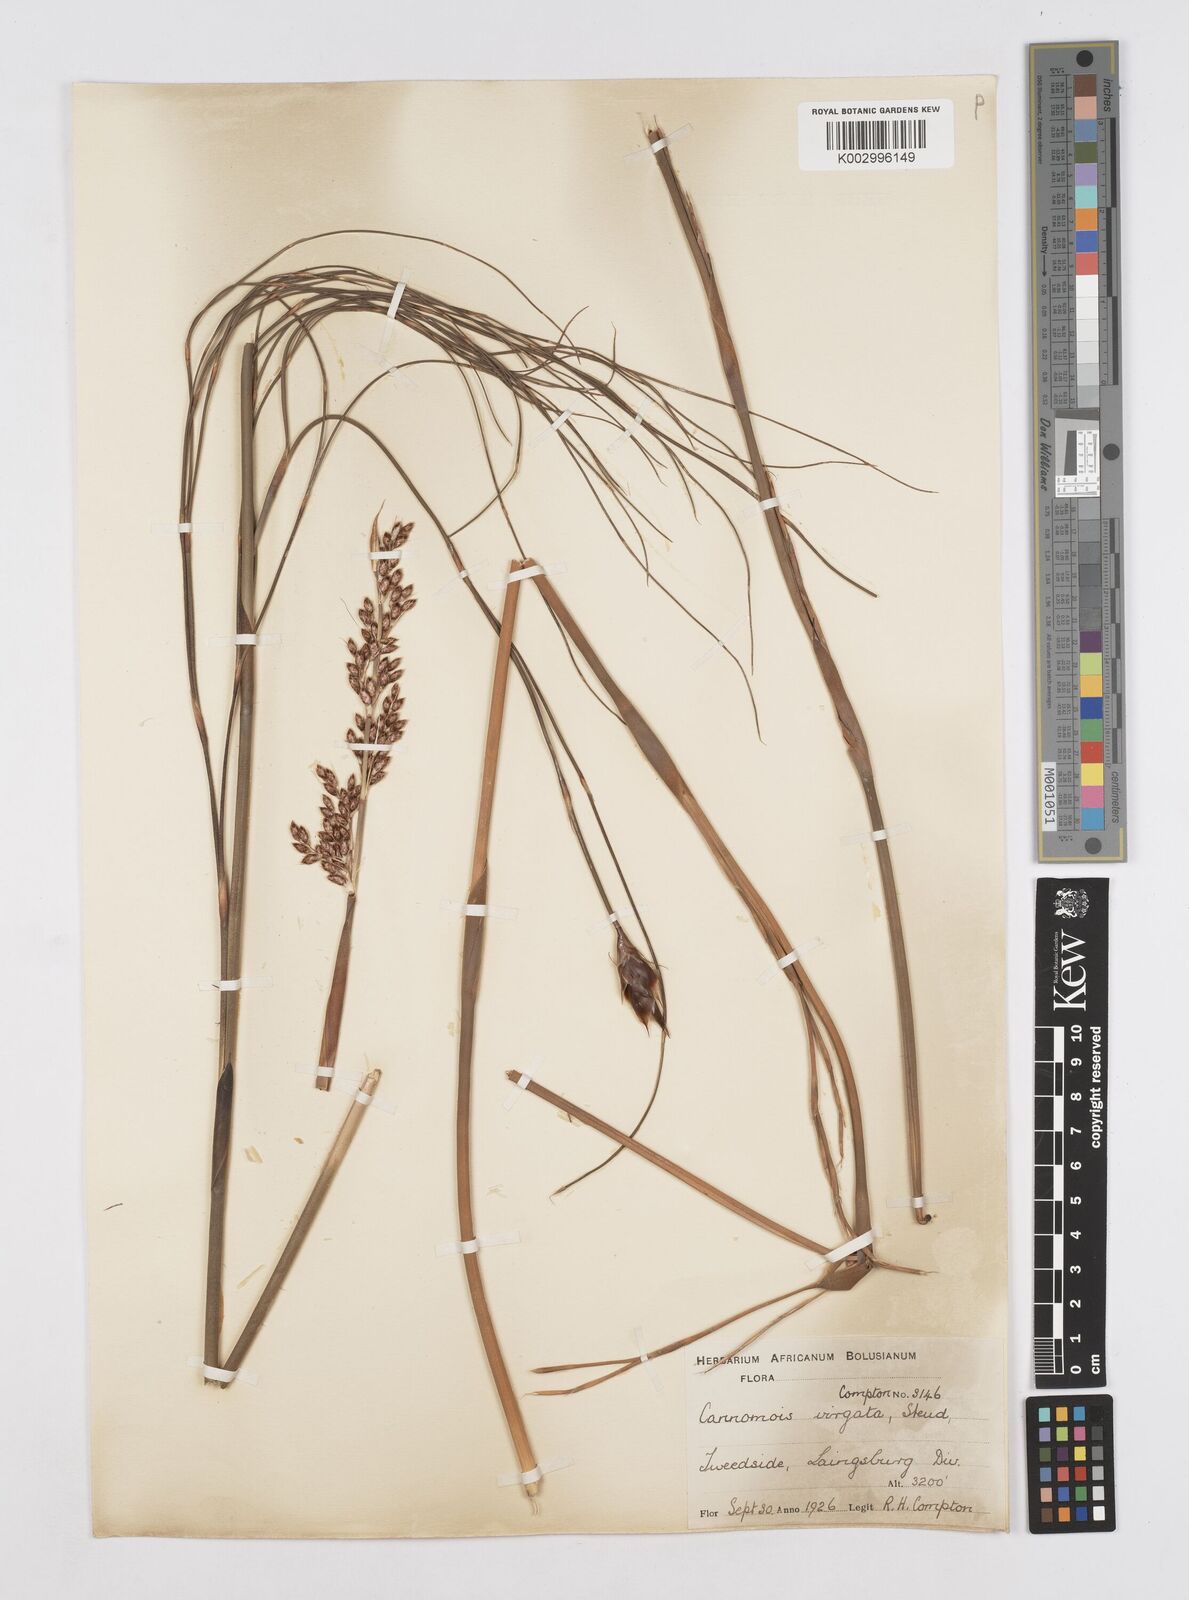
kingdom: Plantae
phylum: Tracheophyta
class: Liliopsida
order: Poales
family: Restionaceae
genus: Cannomois
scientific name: Cannomois virgata
